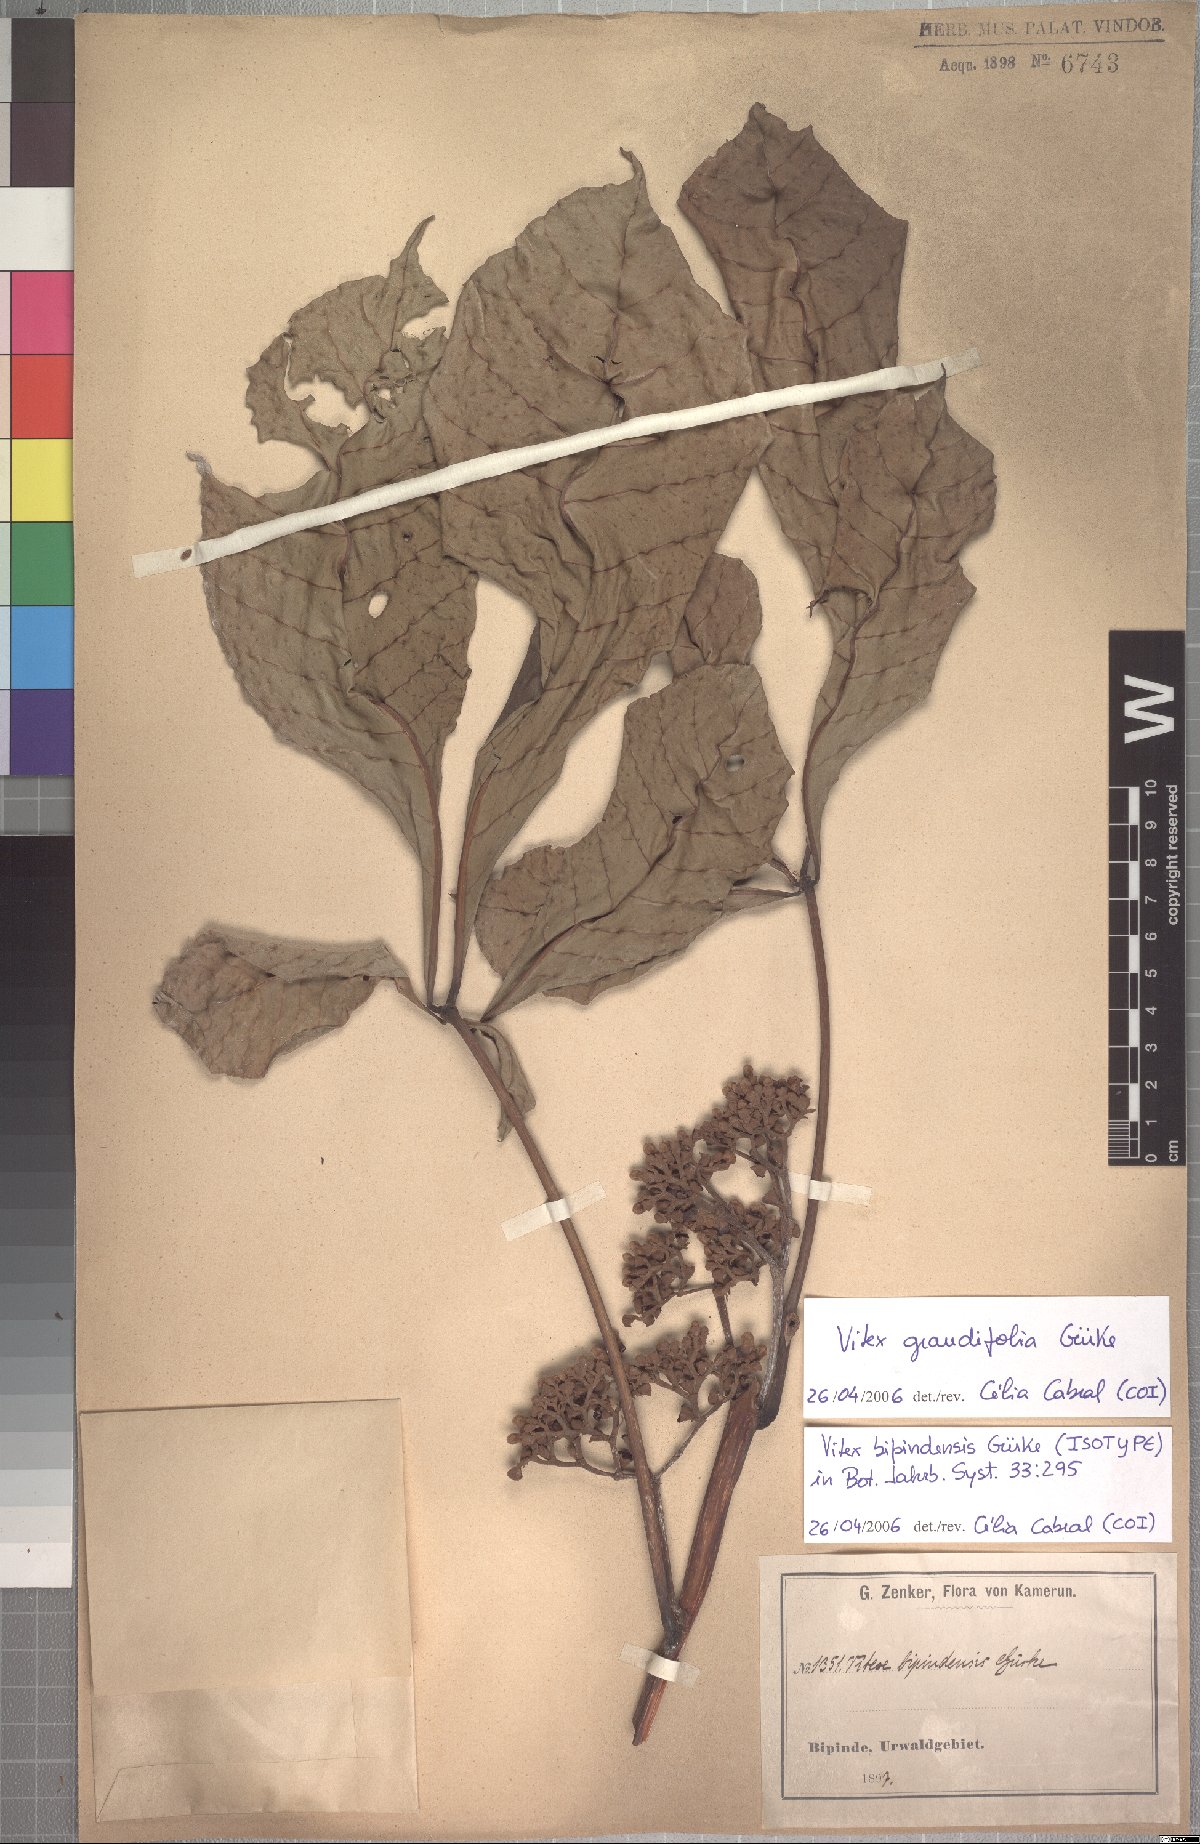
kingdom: Plantae
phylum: Tracheophyta
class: Magnoliopsida
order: Lamiales
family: Lamiaceae
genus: Vitex
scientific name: Vitex grandifolia
